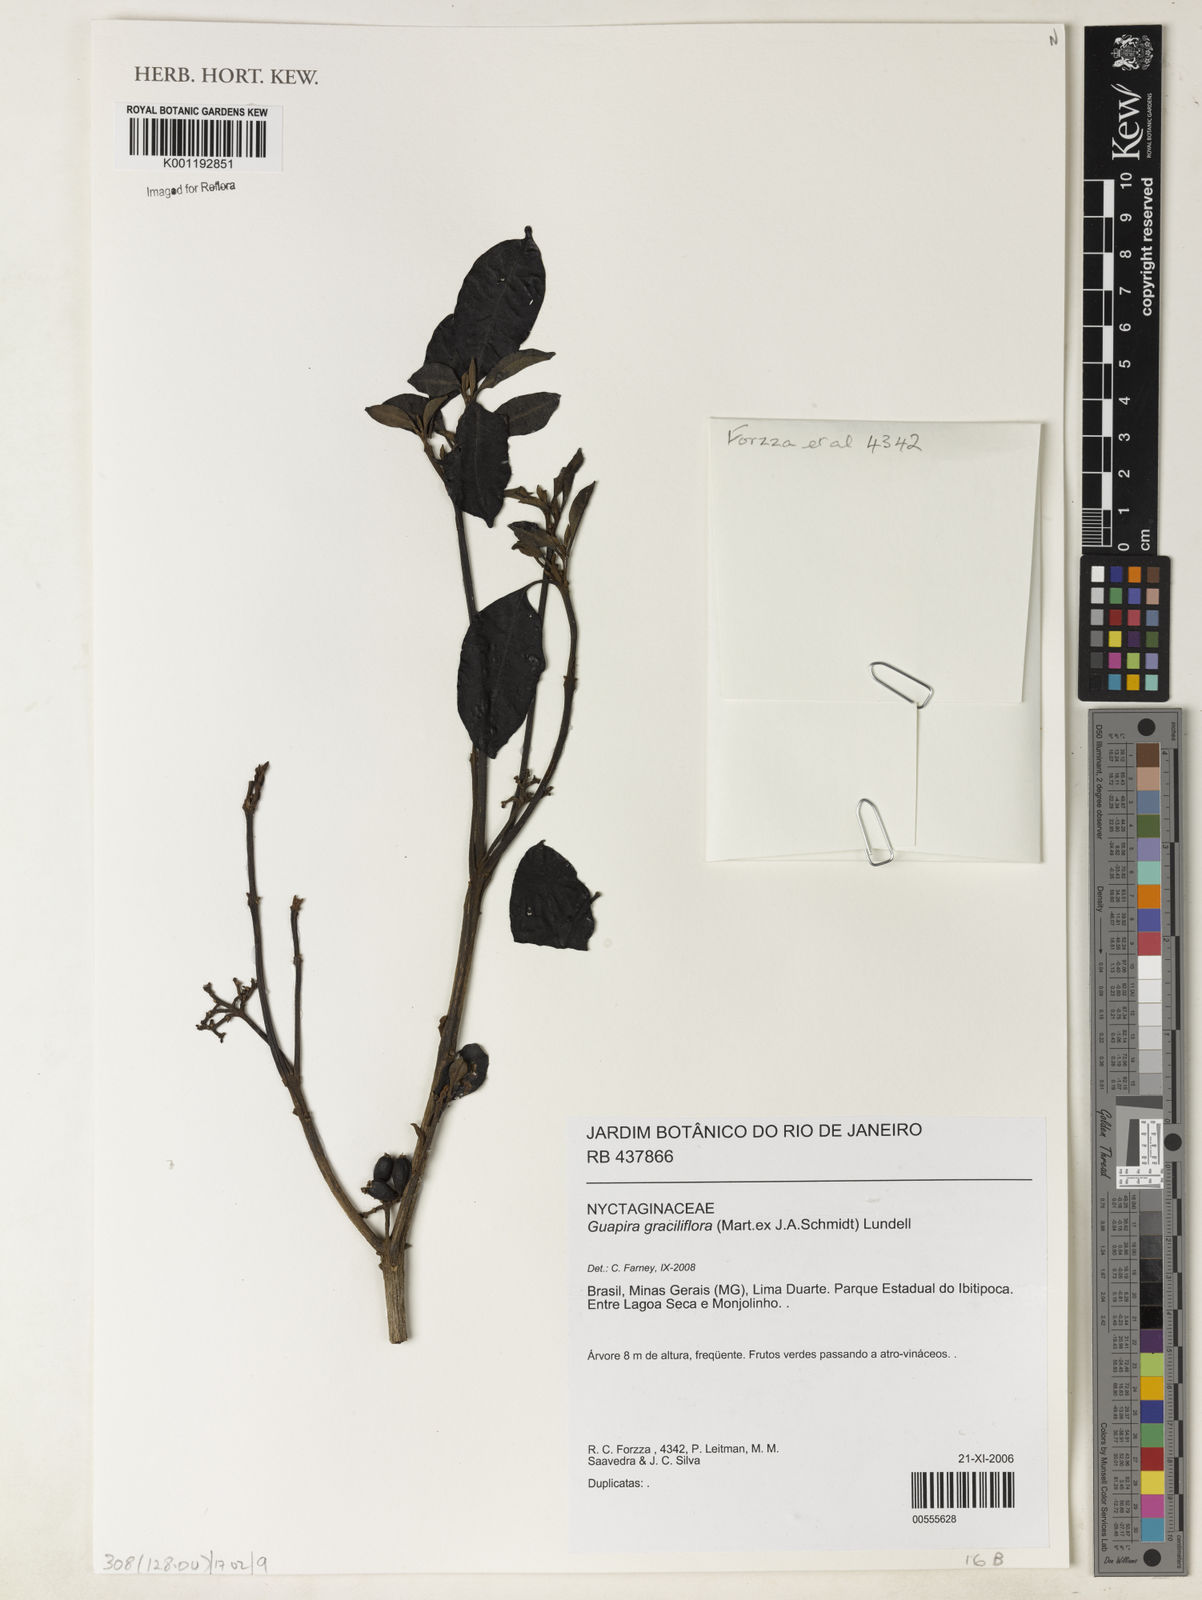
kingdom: Plantae
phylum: Tracheophyta
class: Magnoliopsida
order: Caryophyllales
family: Nyctaginaceae
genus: Guapira
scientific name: Guapira graciliflora
